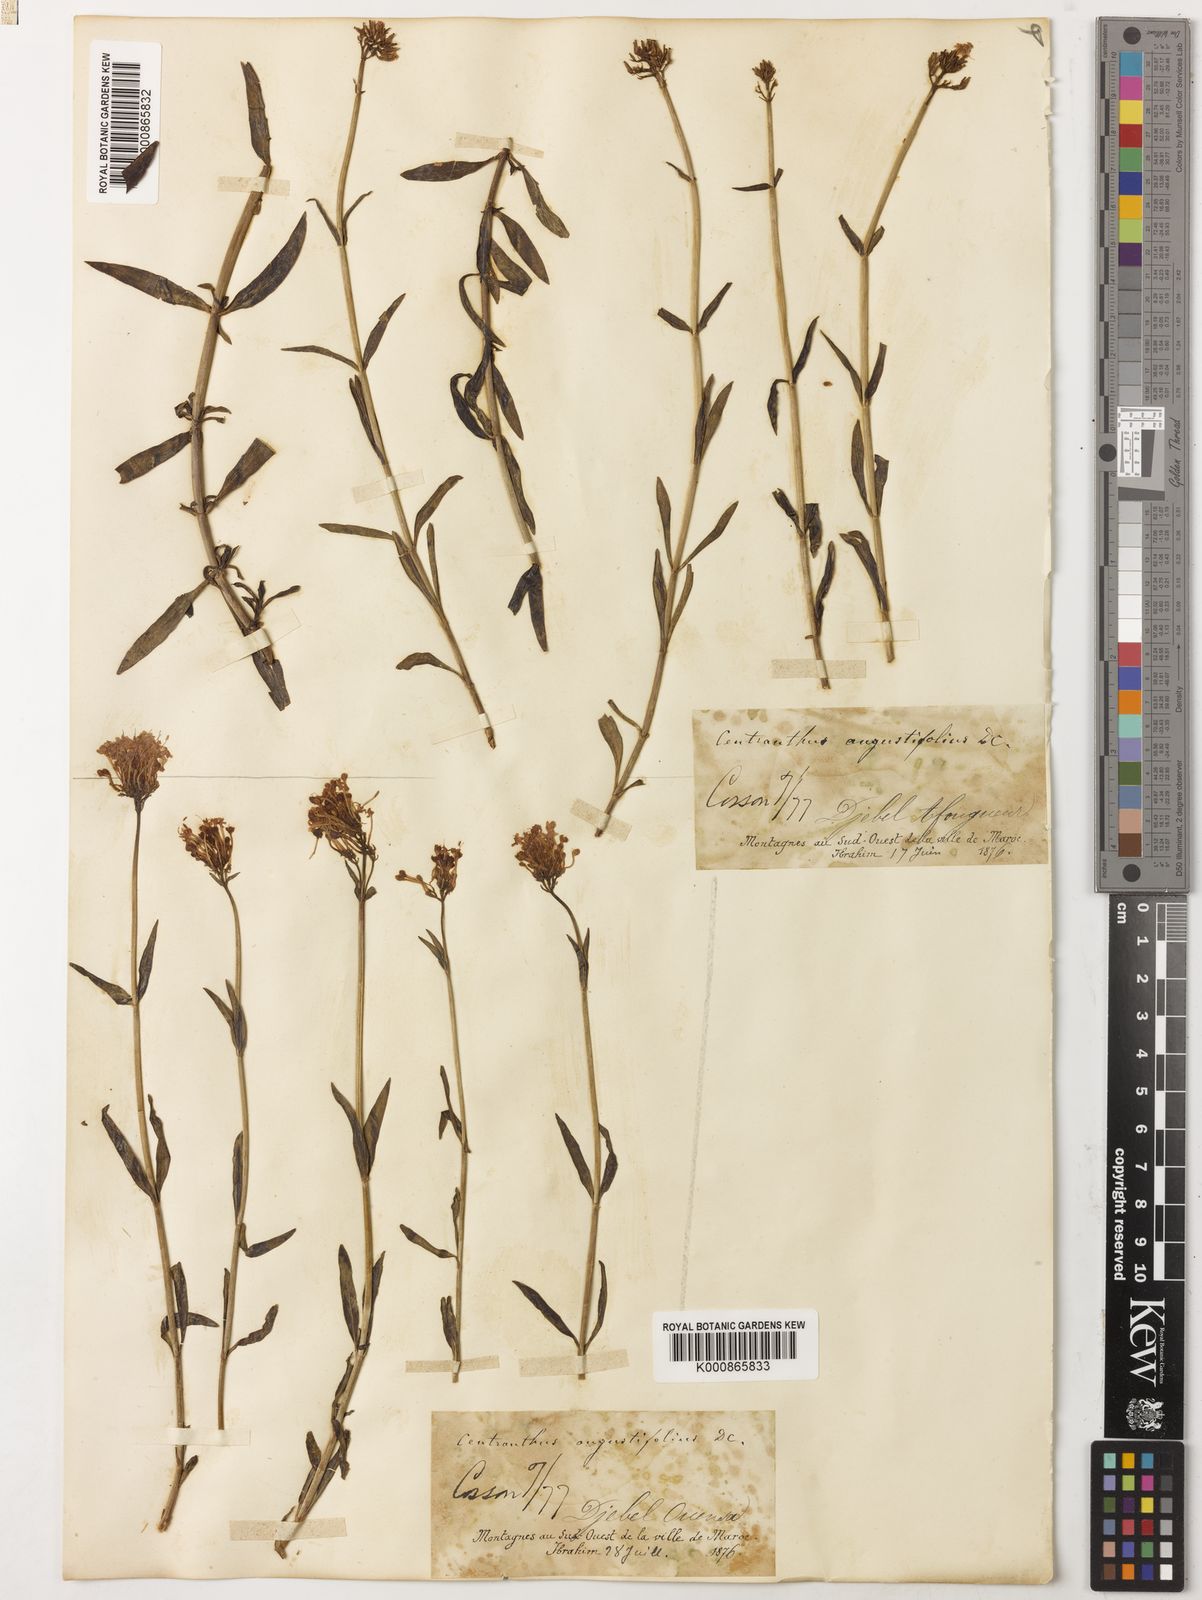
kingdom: Plantae
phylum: Tracheophyta
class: Magnoliopsida
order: Dipsacales
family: Caprifoliaceae
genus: Centranthus
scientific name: Centranthus angustifolius
